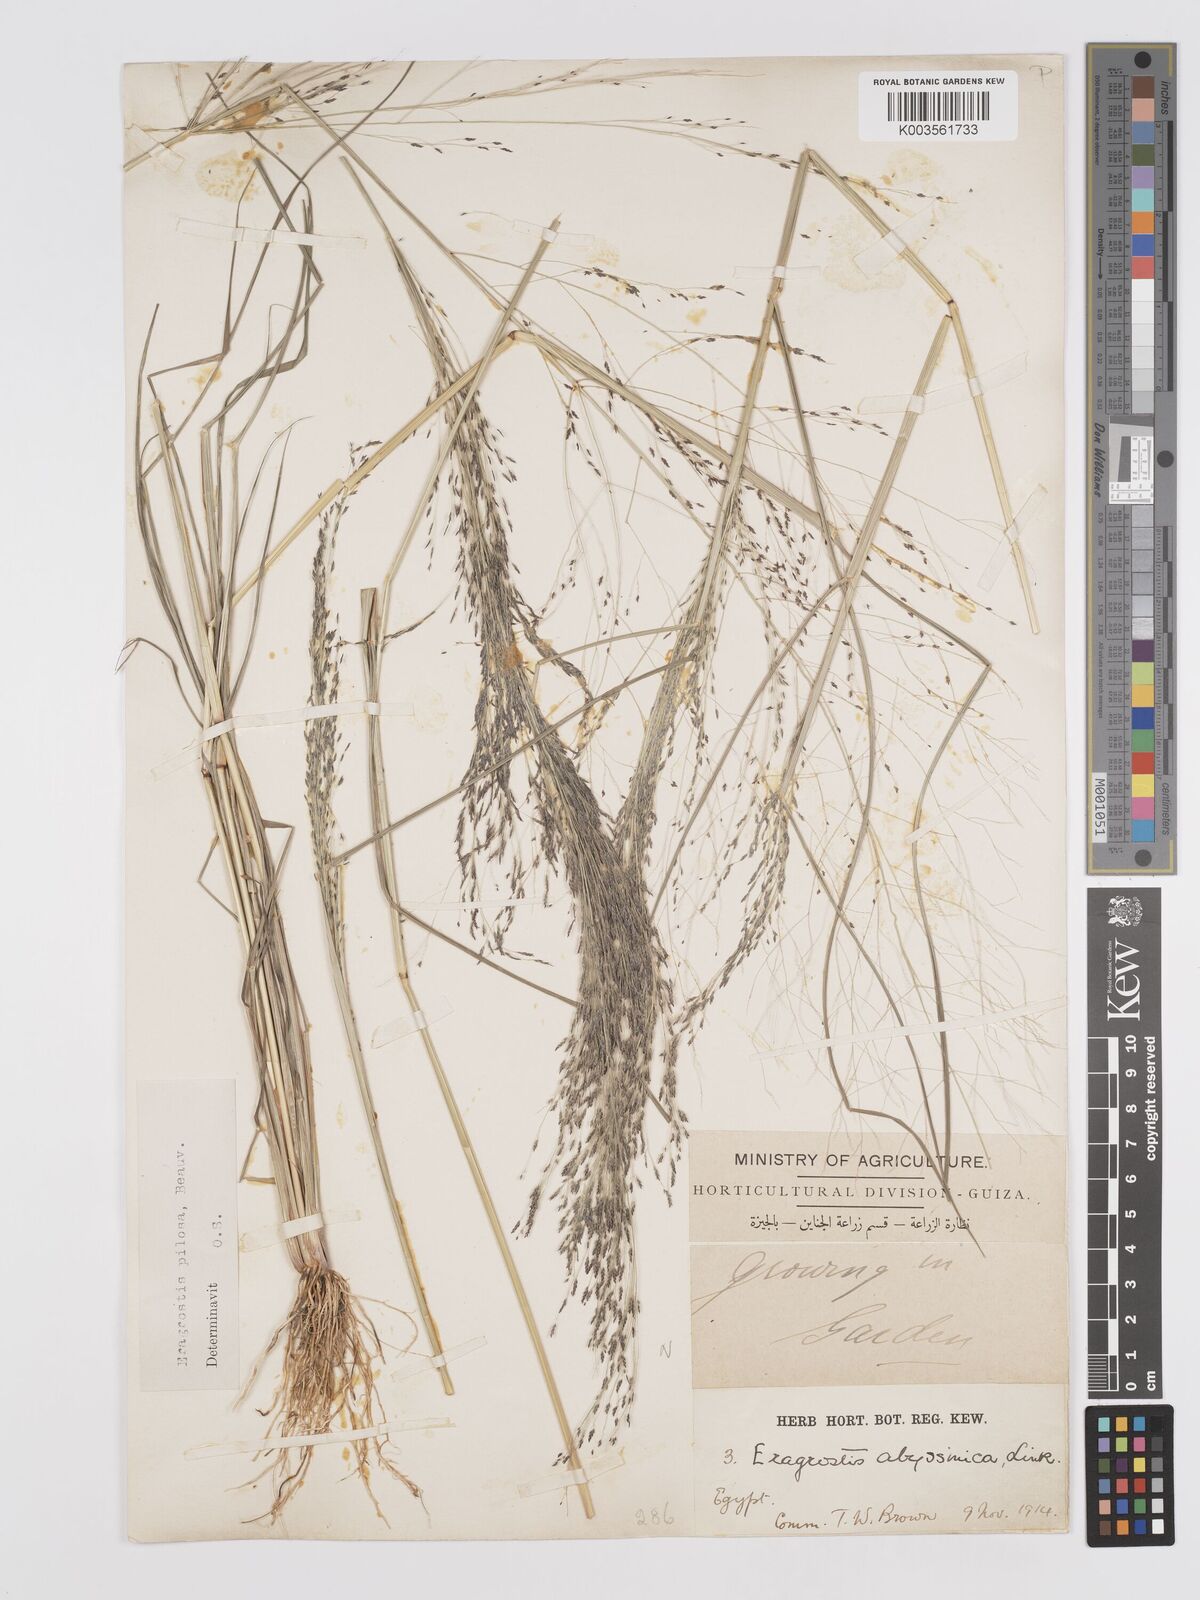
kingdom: Plantae
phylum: Tracheophyta
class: Liliopsida
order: Poales
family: Poaceae
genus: Eragrostis
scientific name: Eragrostis pilosa
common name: Indian lovegrass
